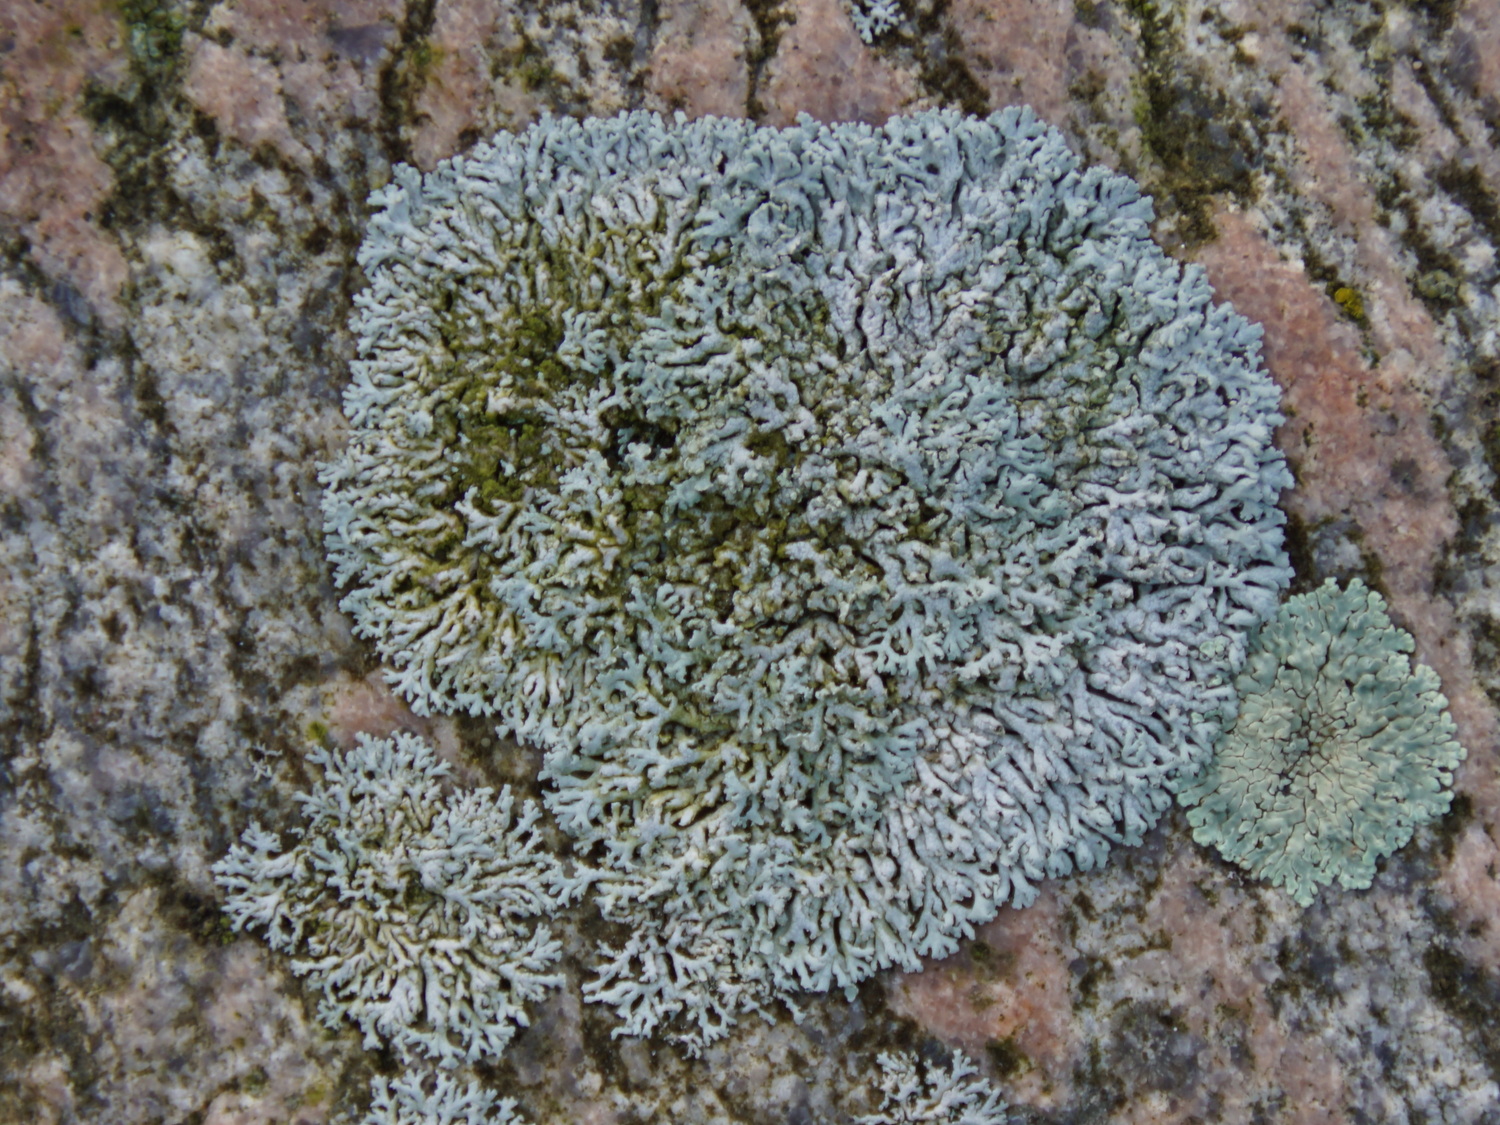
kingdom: Fungi
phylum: Ascomycota
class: Lecanoromycetes
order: Caliciales
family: Physciaceae
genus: Physcia
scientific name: Physcia dubia
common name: fuglestens-rosetlav
